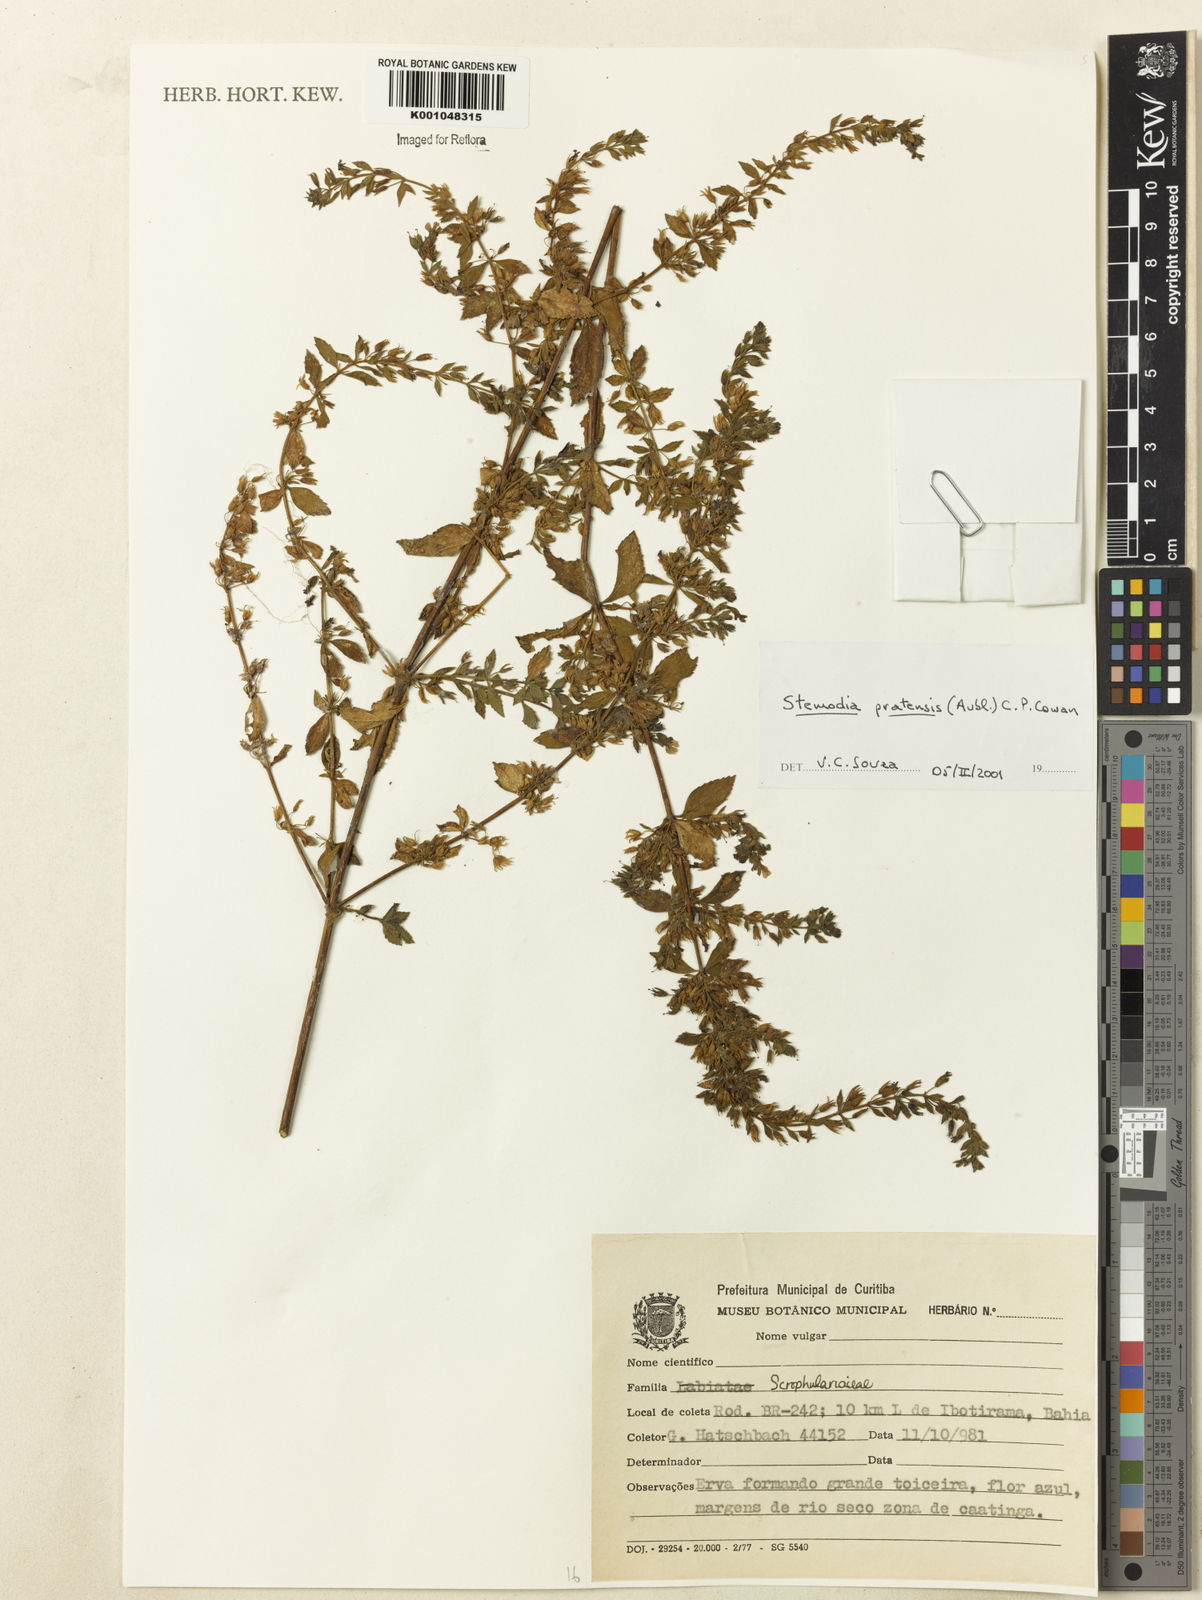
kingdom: Plantae
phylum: Tracheophyta
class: Magnoliopsida
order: Lamiales
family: Plantaginaceae
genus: Stemodia
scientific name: Stemodia foliosa
